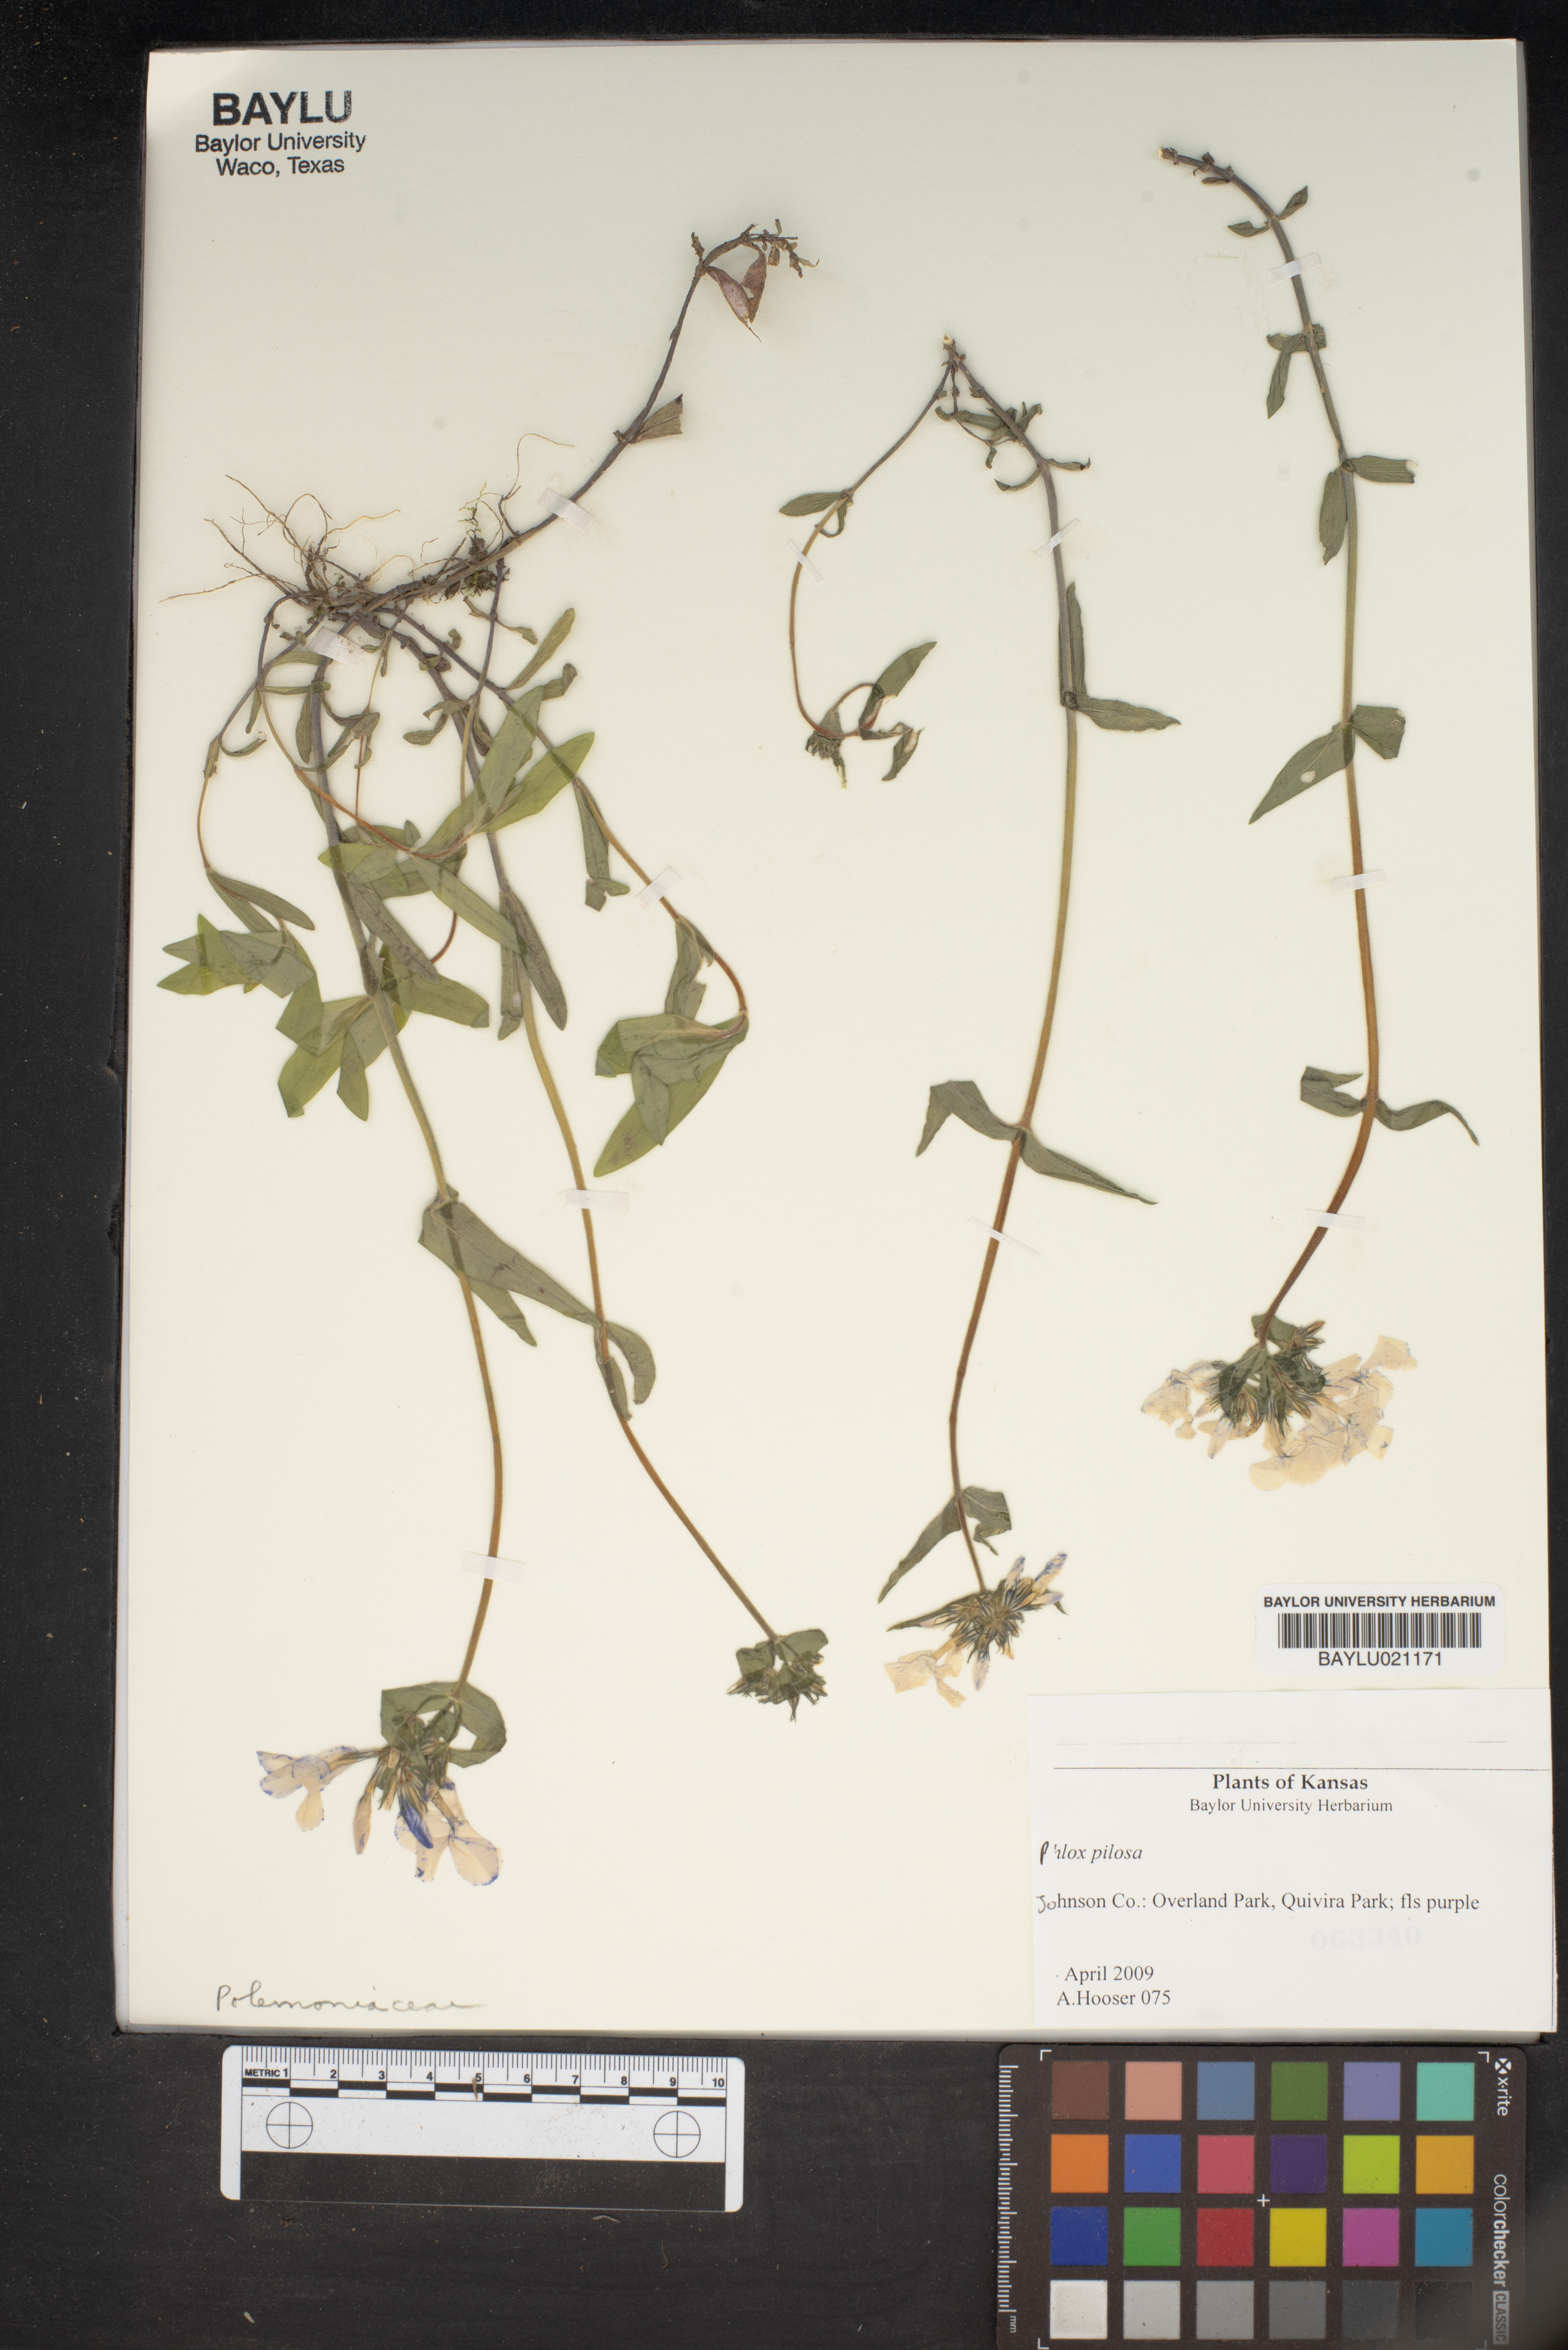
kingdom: Plantae
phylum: Tracheophyta
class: Magnoliopsida
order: Ericales
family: Polemoniaceae
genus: Phlox
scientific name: Phlox pilosa
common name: Prairie phlox
